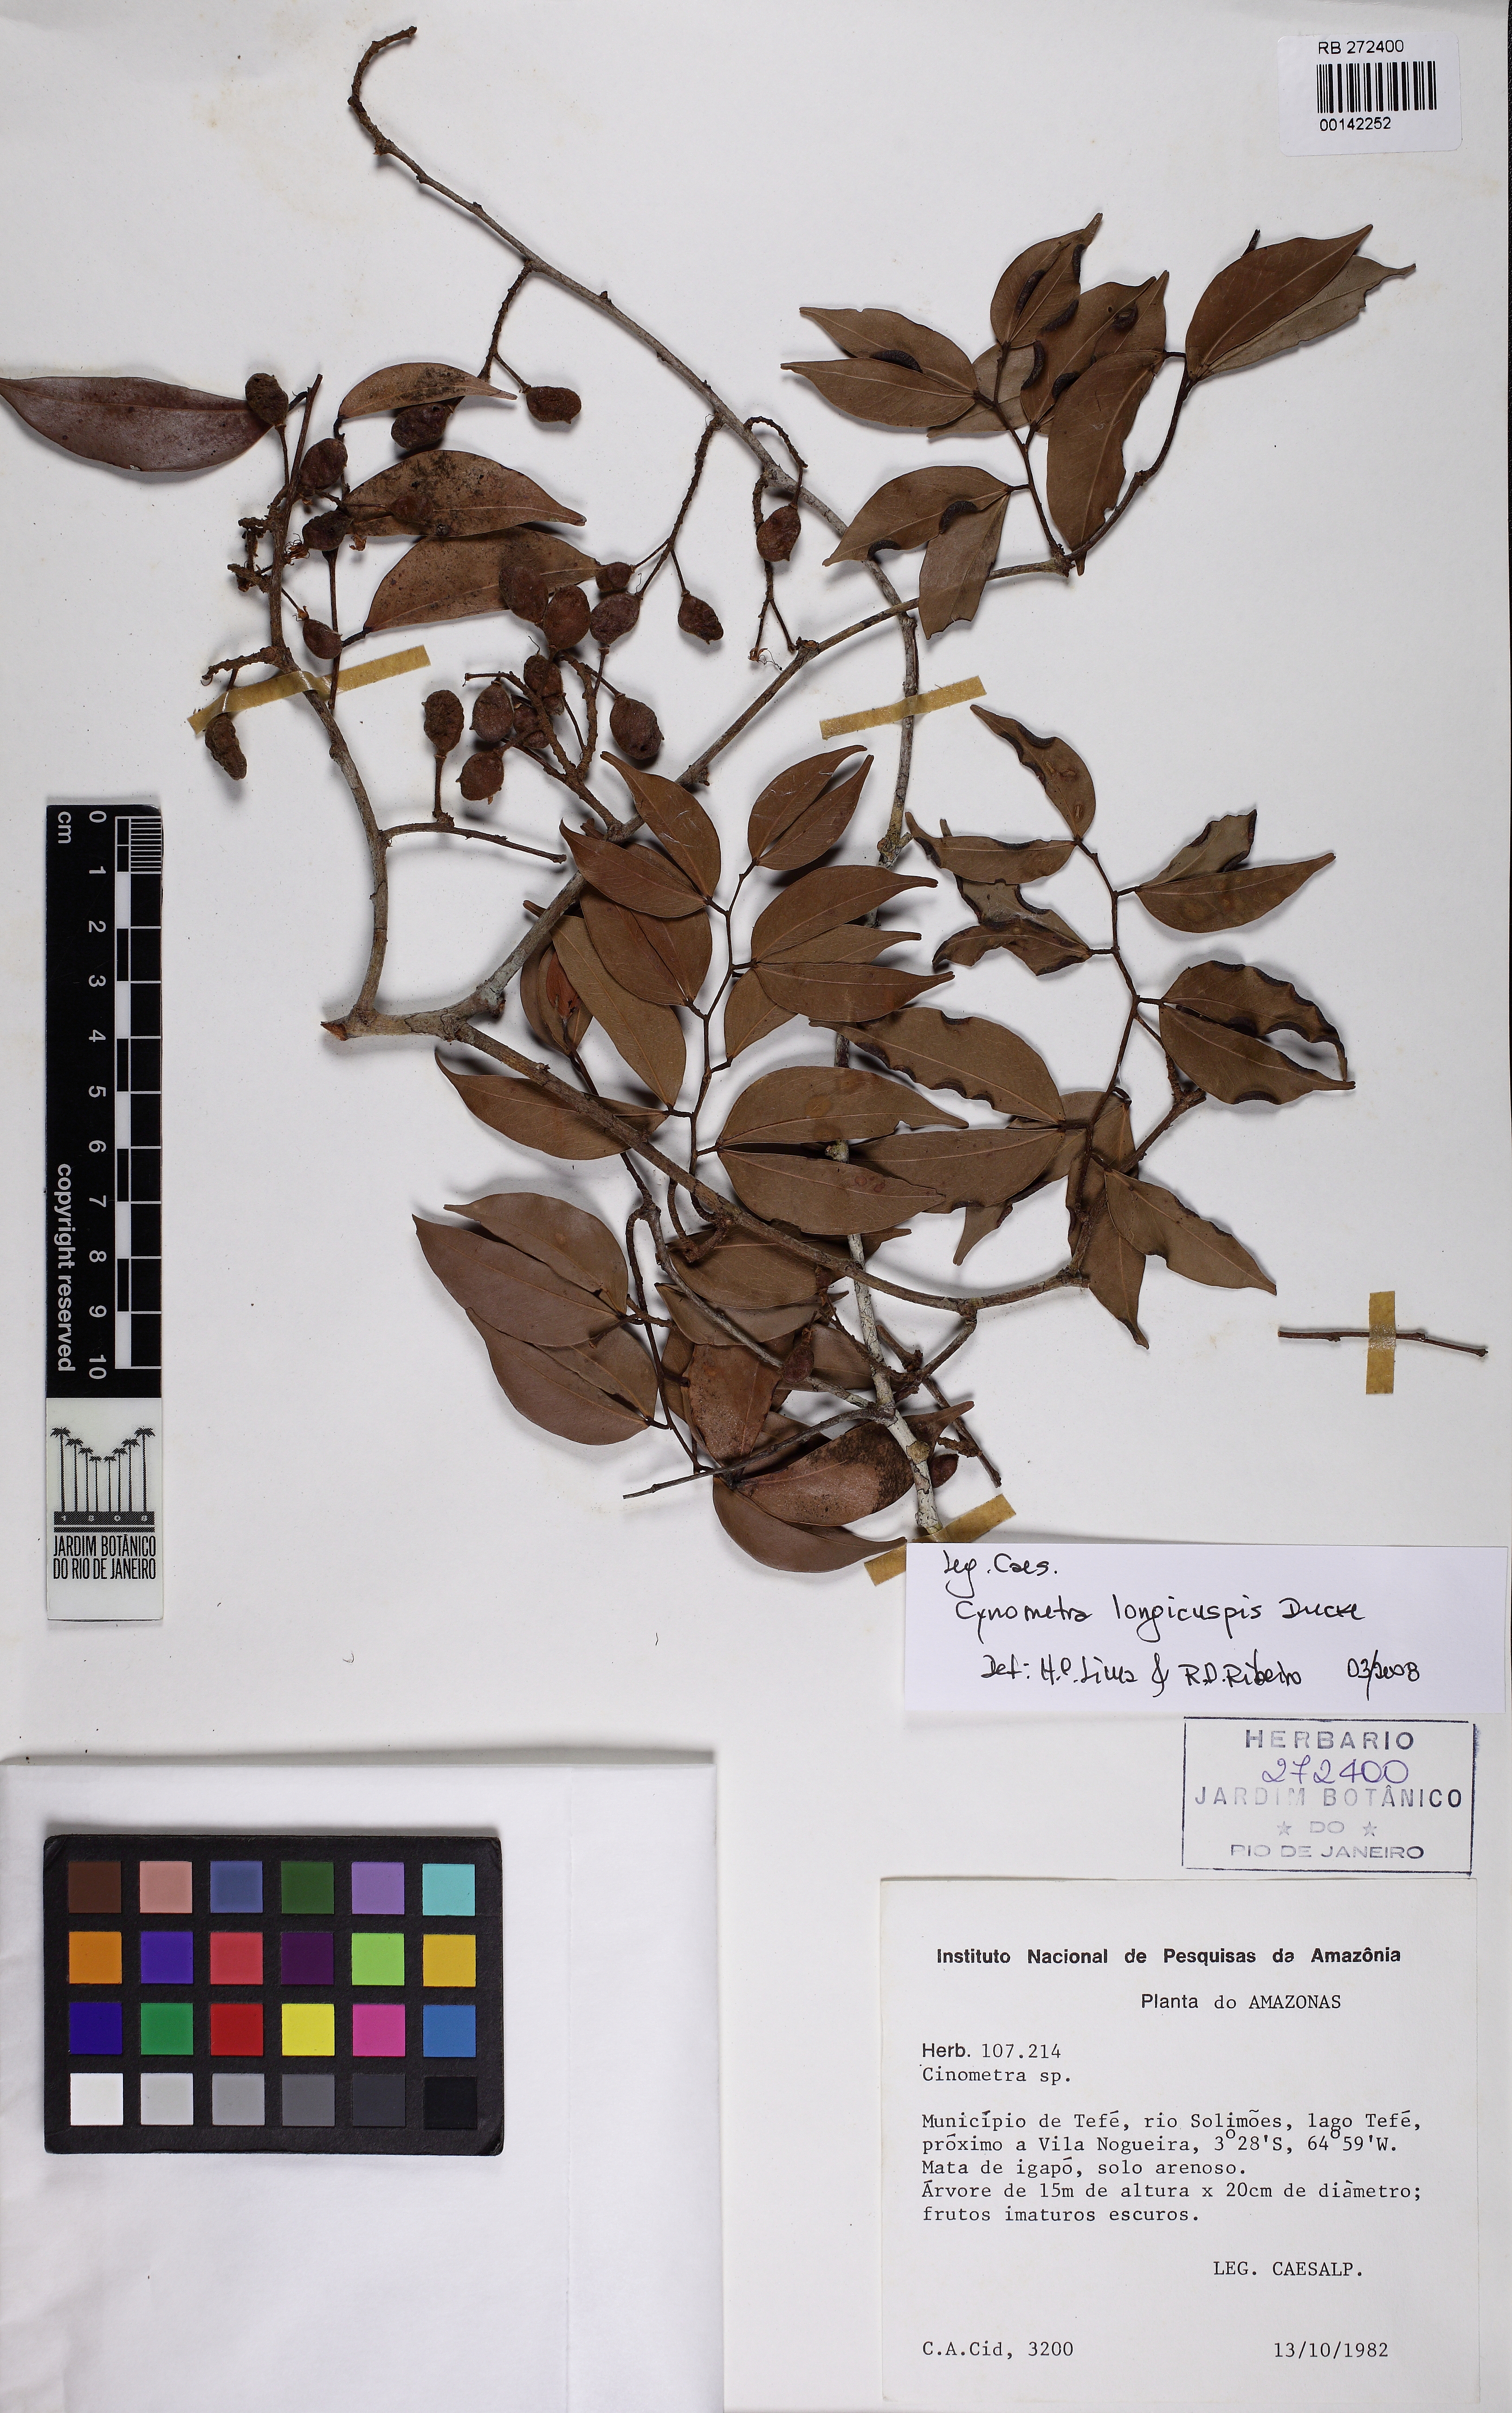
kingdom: Plantae
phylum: Tracheophyta
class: Magnoliopsida
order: Fabales
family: Fabaceae
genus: Cynometra
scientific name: Cynometra longicuspis
